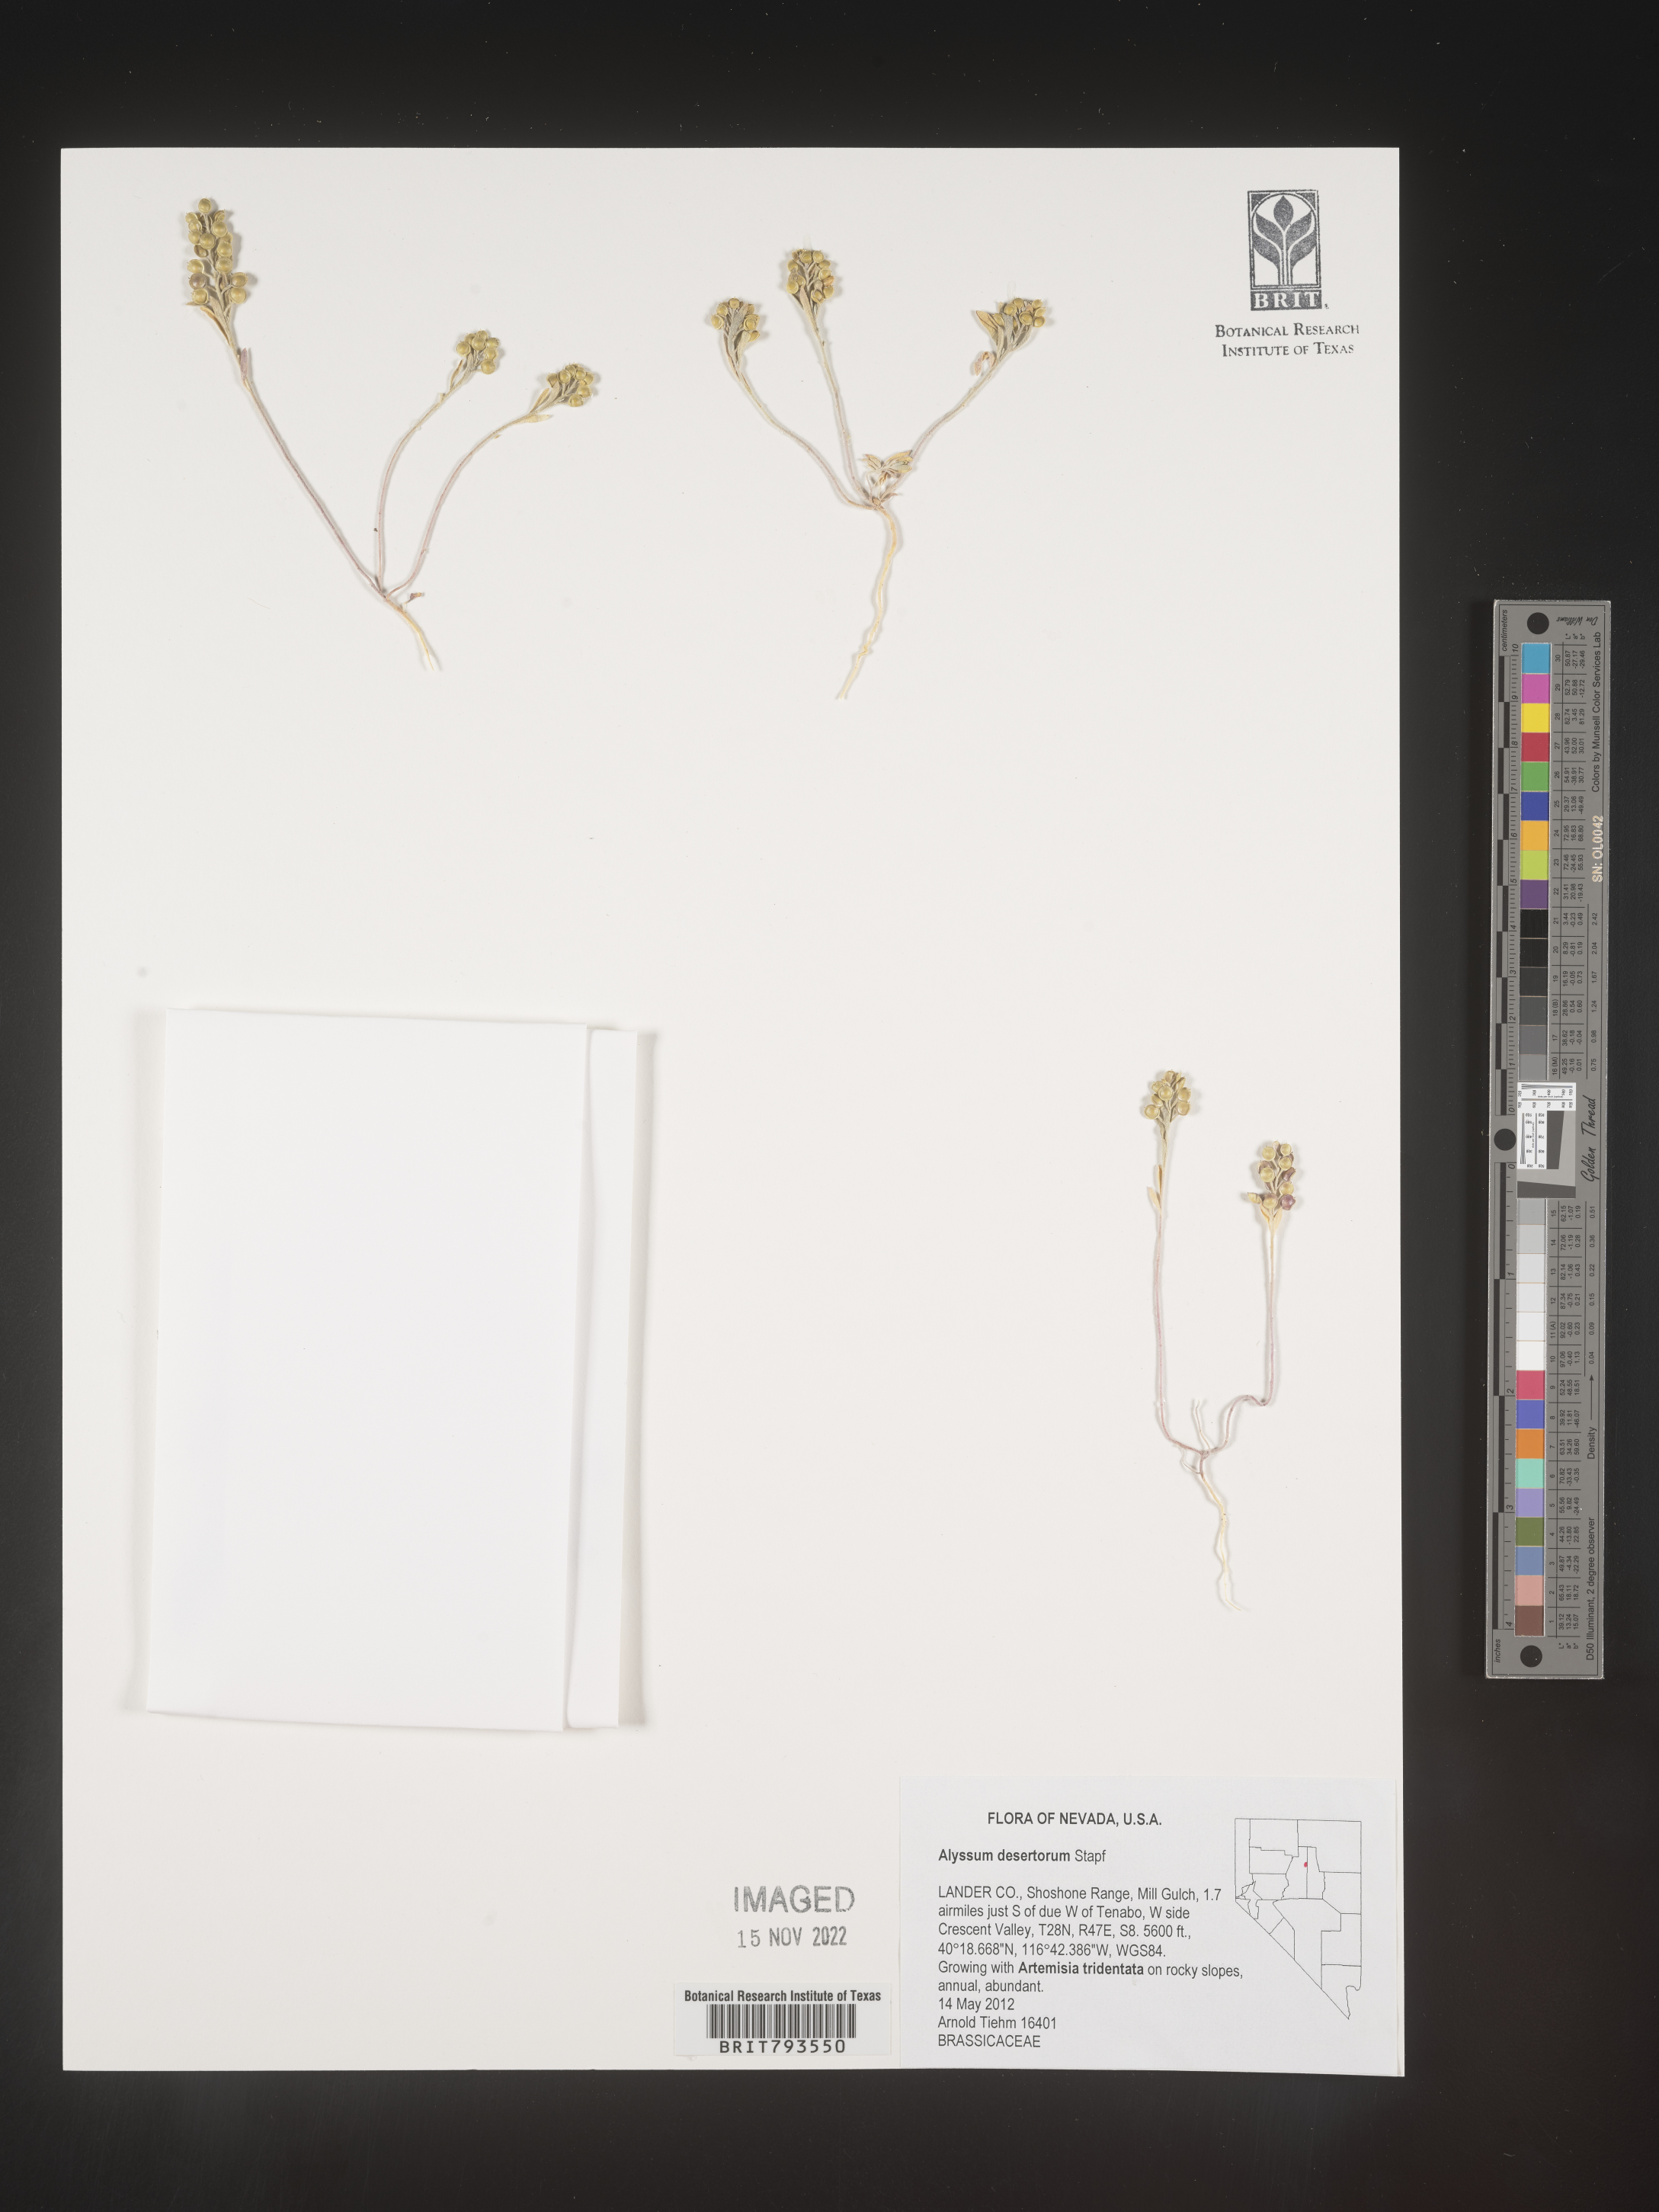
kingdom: Plantae
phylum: Tracheophyta
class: Magnoliopsida
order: Brassicales
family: Brassicaceae
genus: Alyssum
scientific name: Alyssum turkestanicum
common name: Desert alyssum
